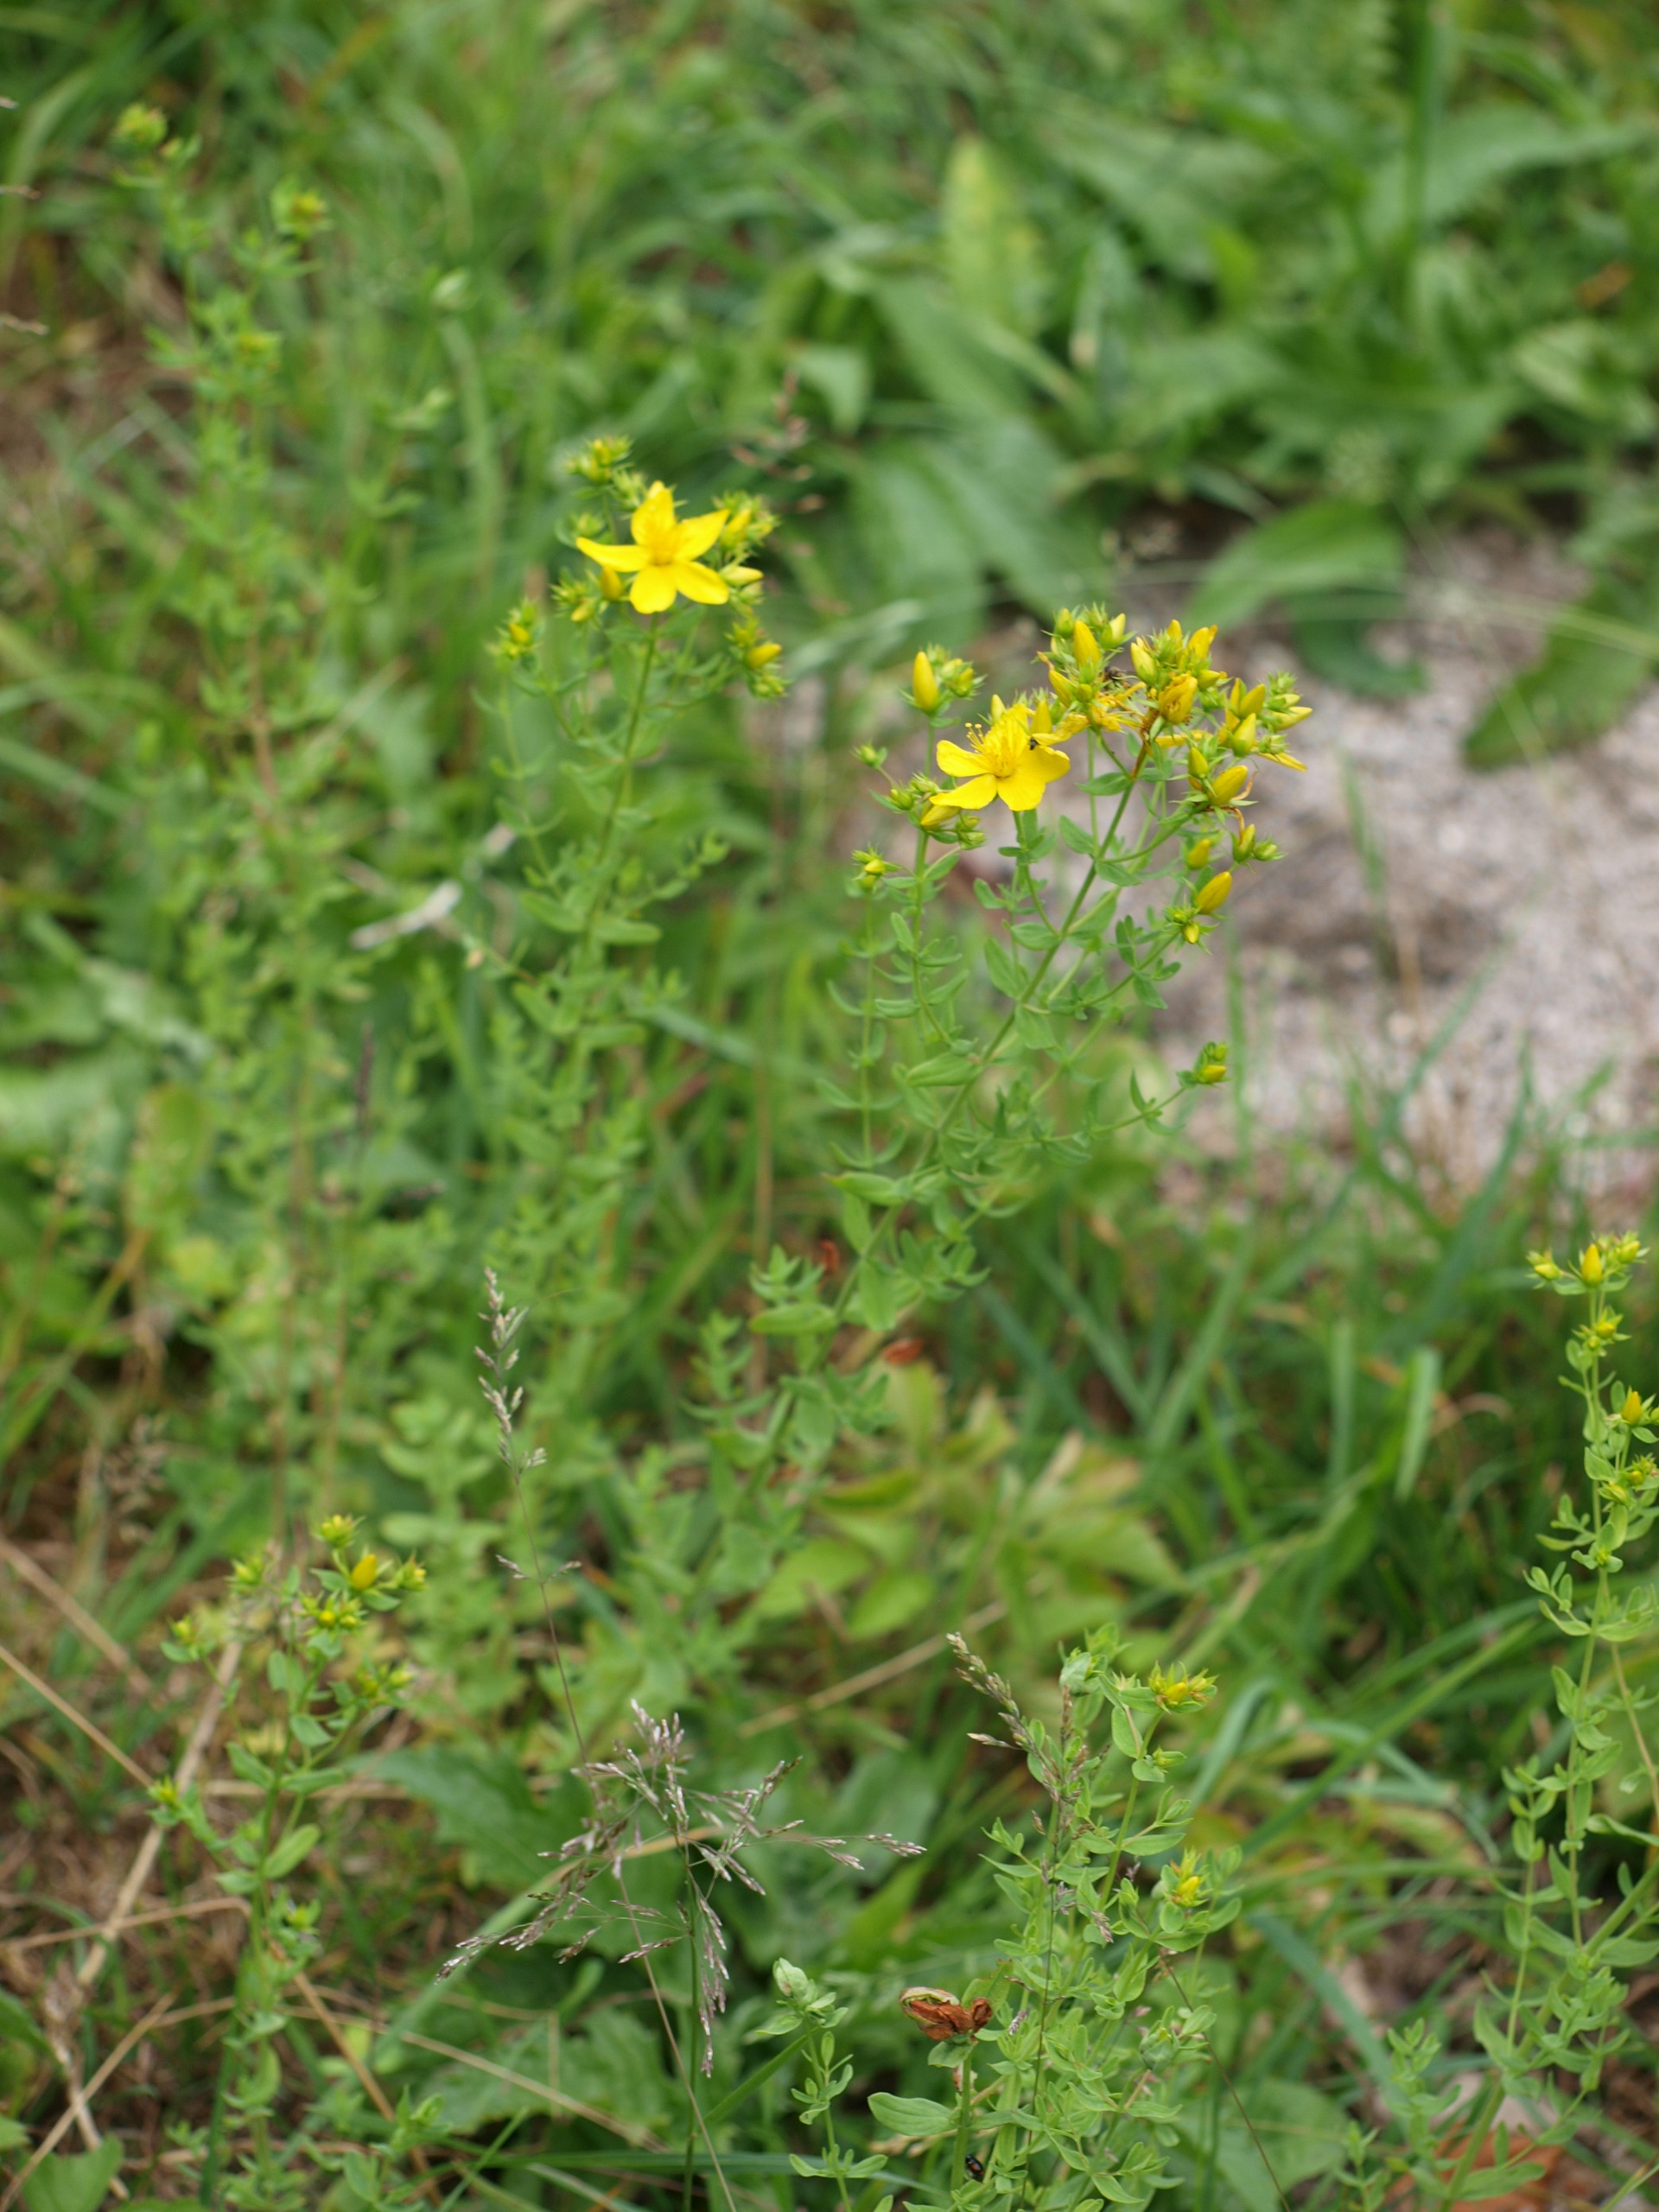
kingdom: Plantae
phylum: Tracheophyta
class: Magnoliopsida
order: Malpighiales
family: Hypericaceae
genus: Hypericum
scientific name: Hypericum perforatum
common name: Prikbladet perikon
